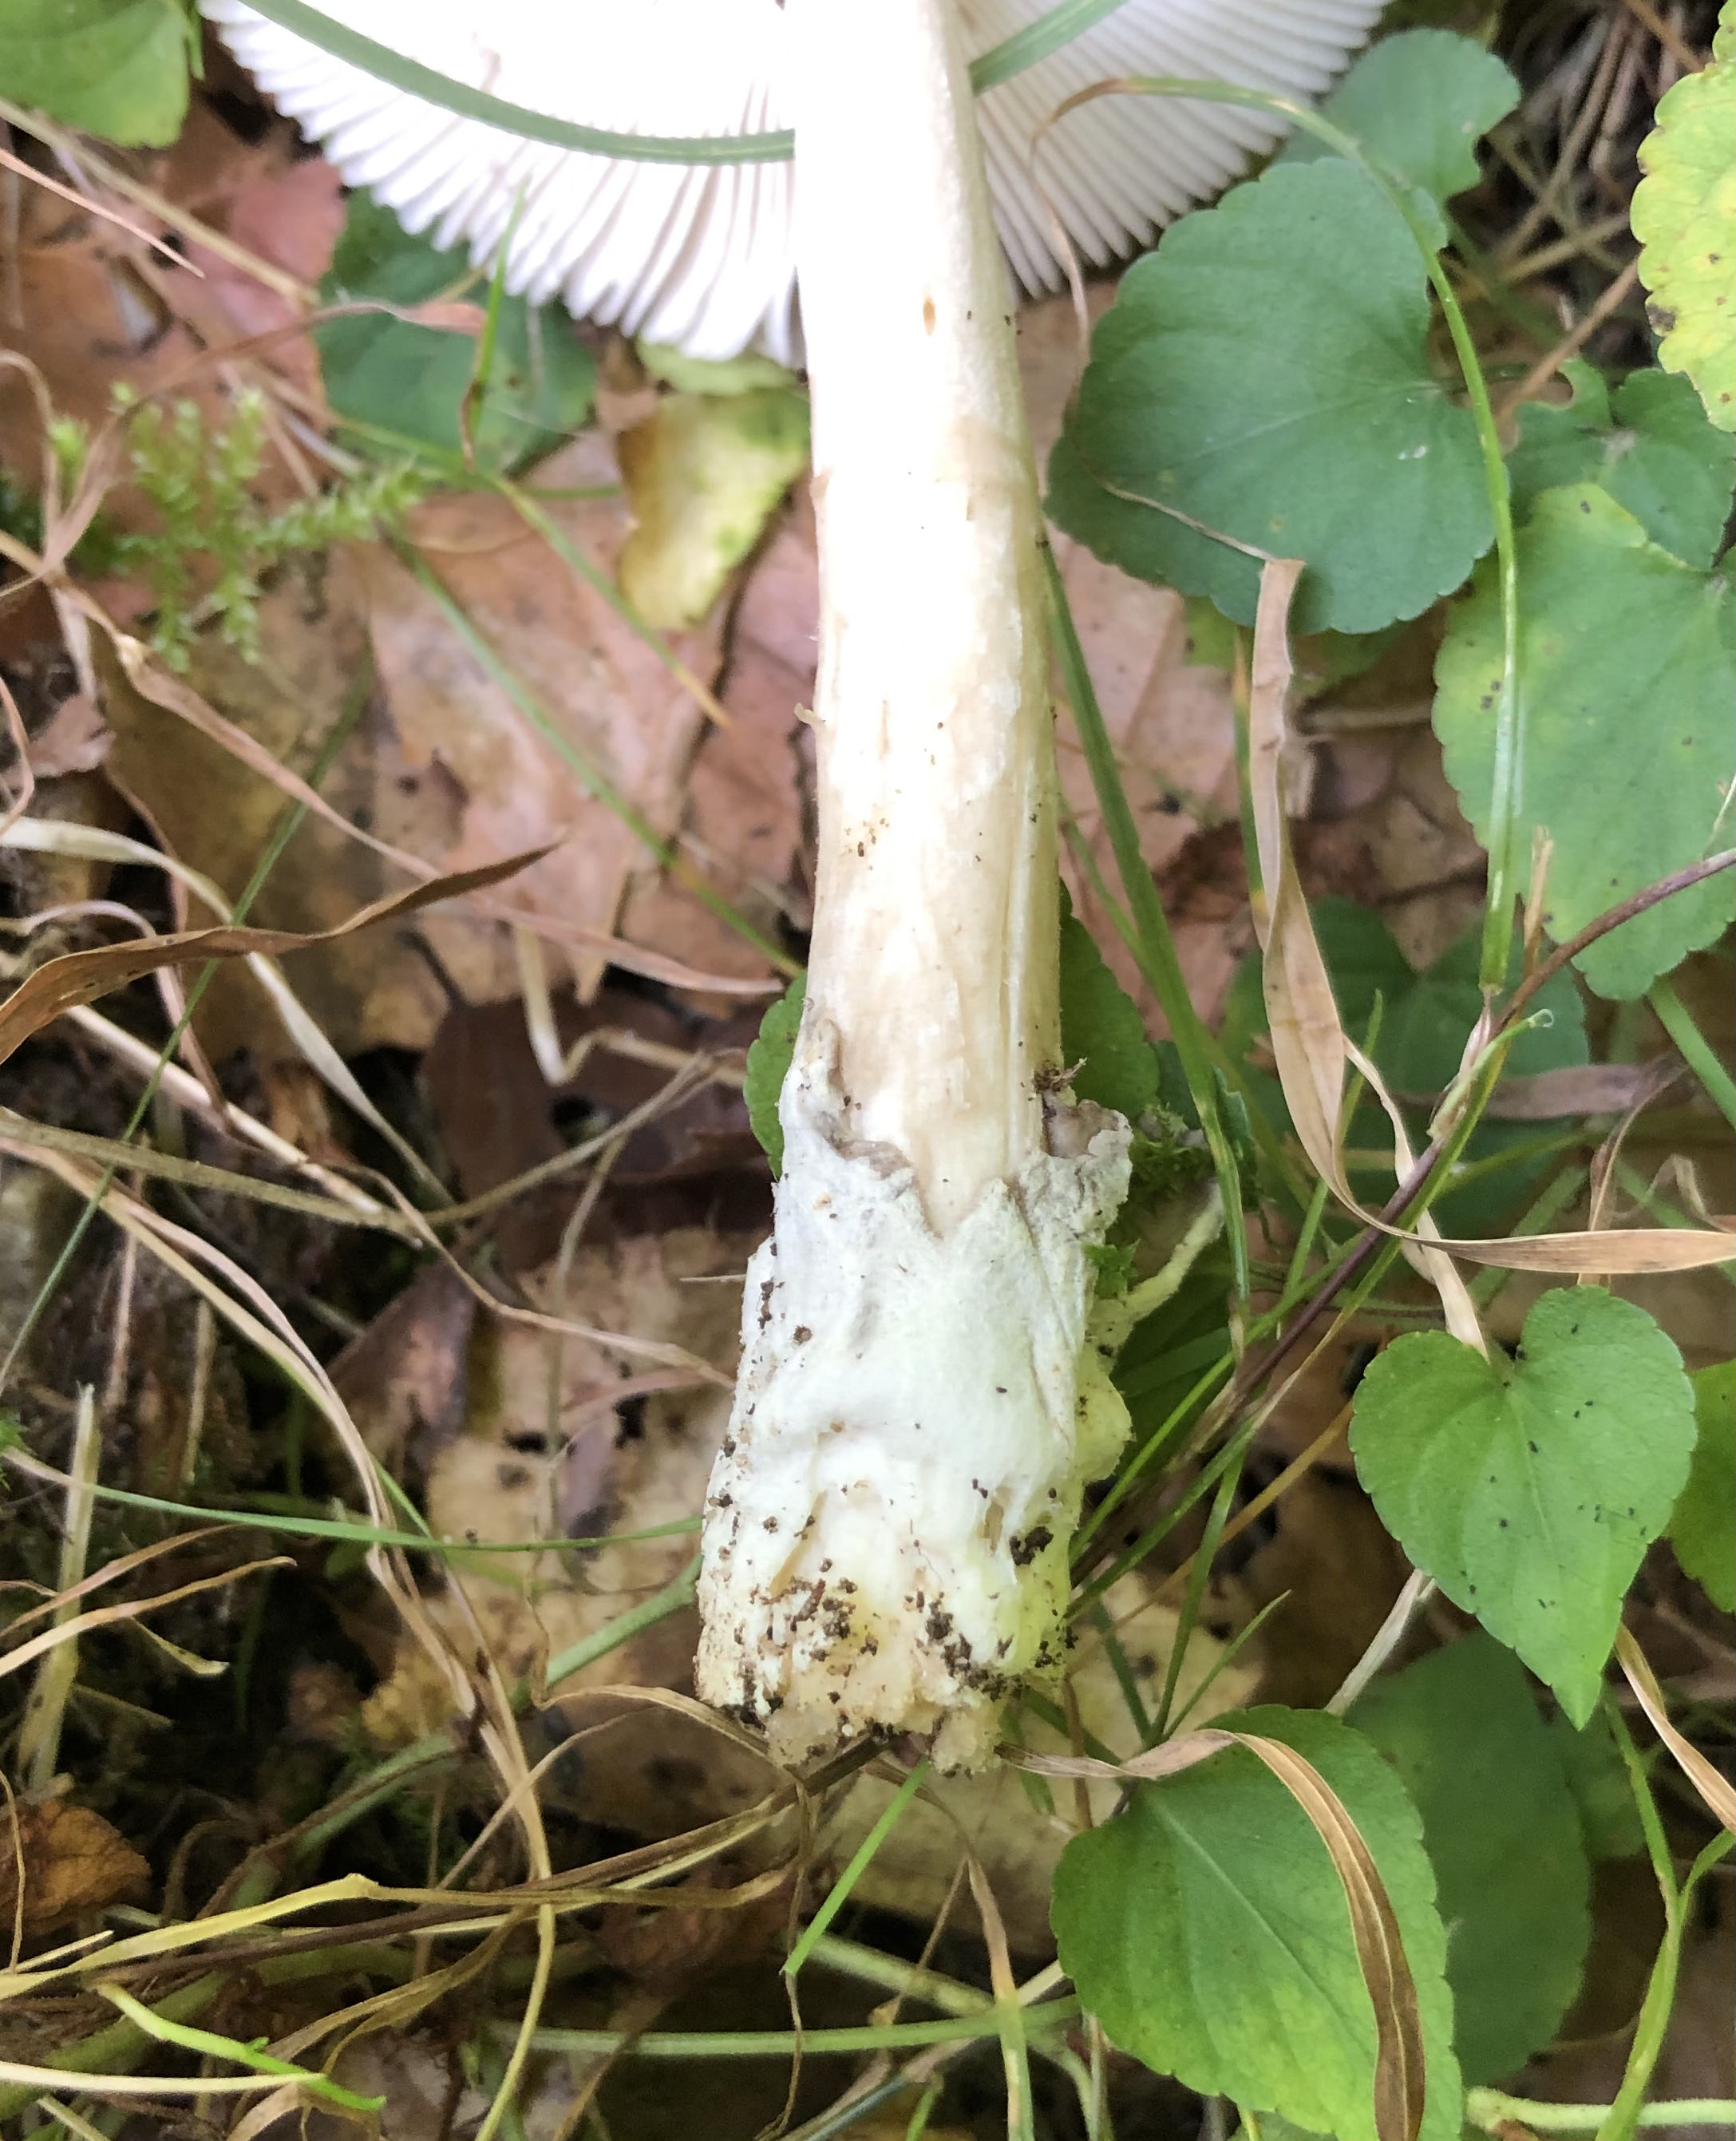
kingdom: Fungi
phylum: Basidiomycota
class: Agaricomycetes
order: Agaricales
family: Amanitaceae
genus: Amanita
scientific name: Amanita
